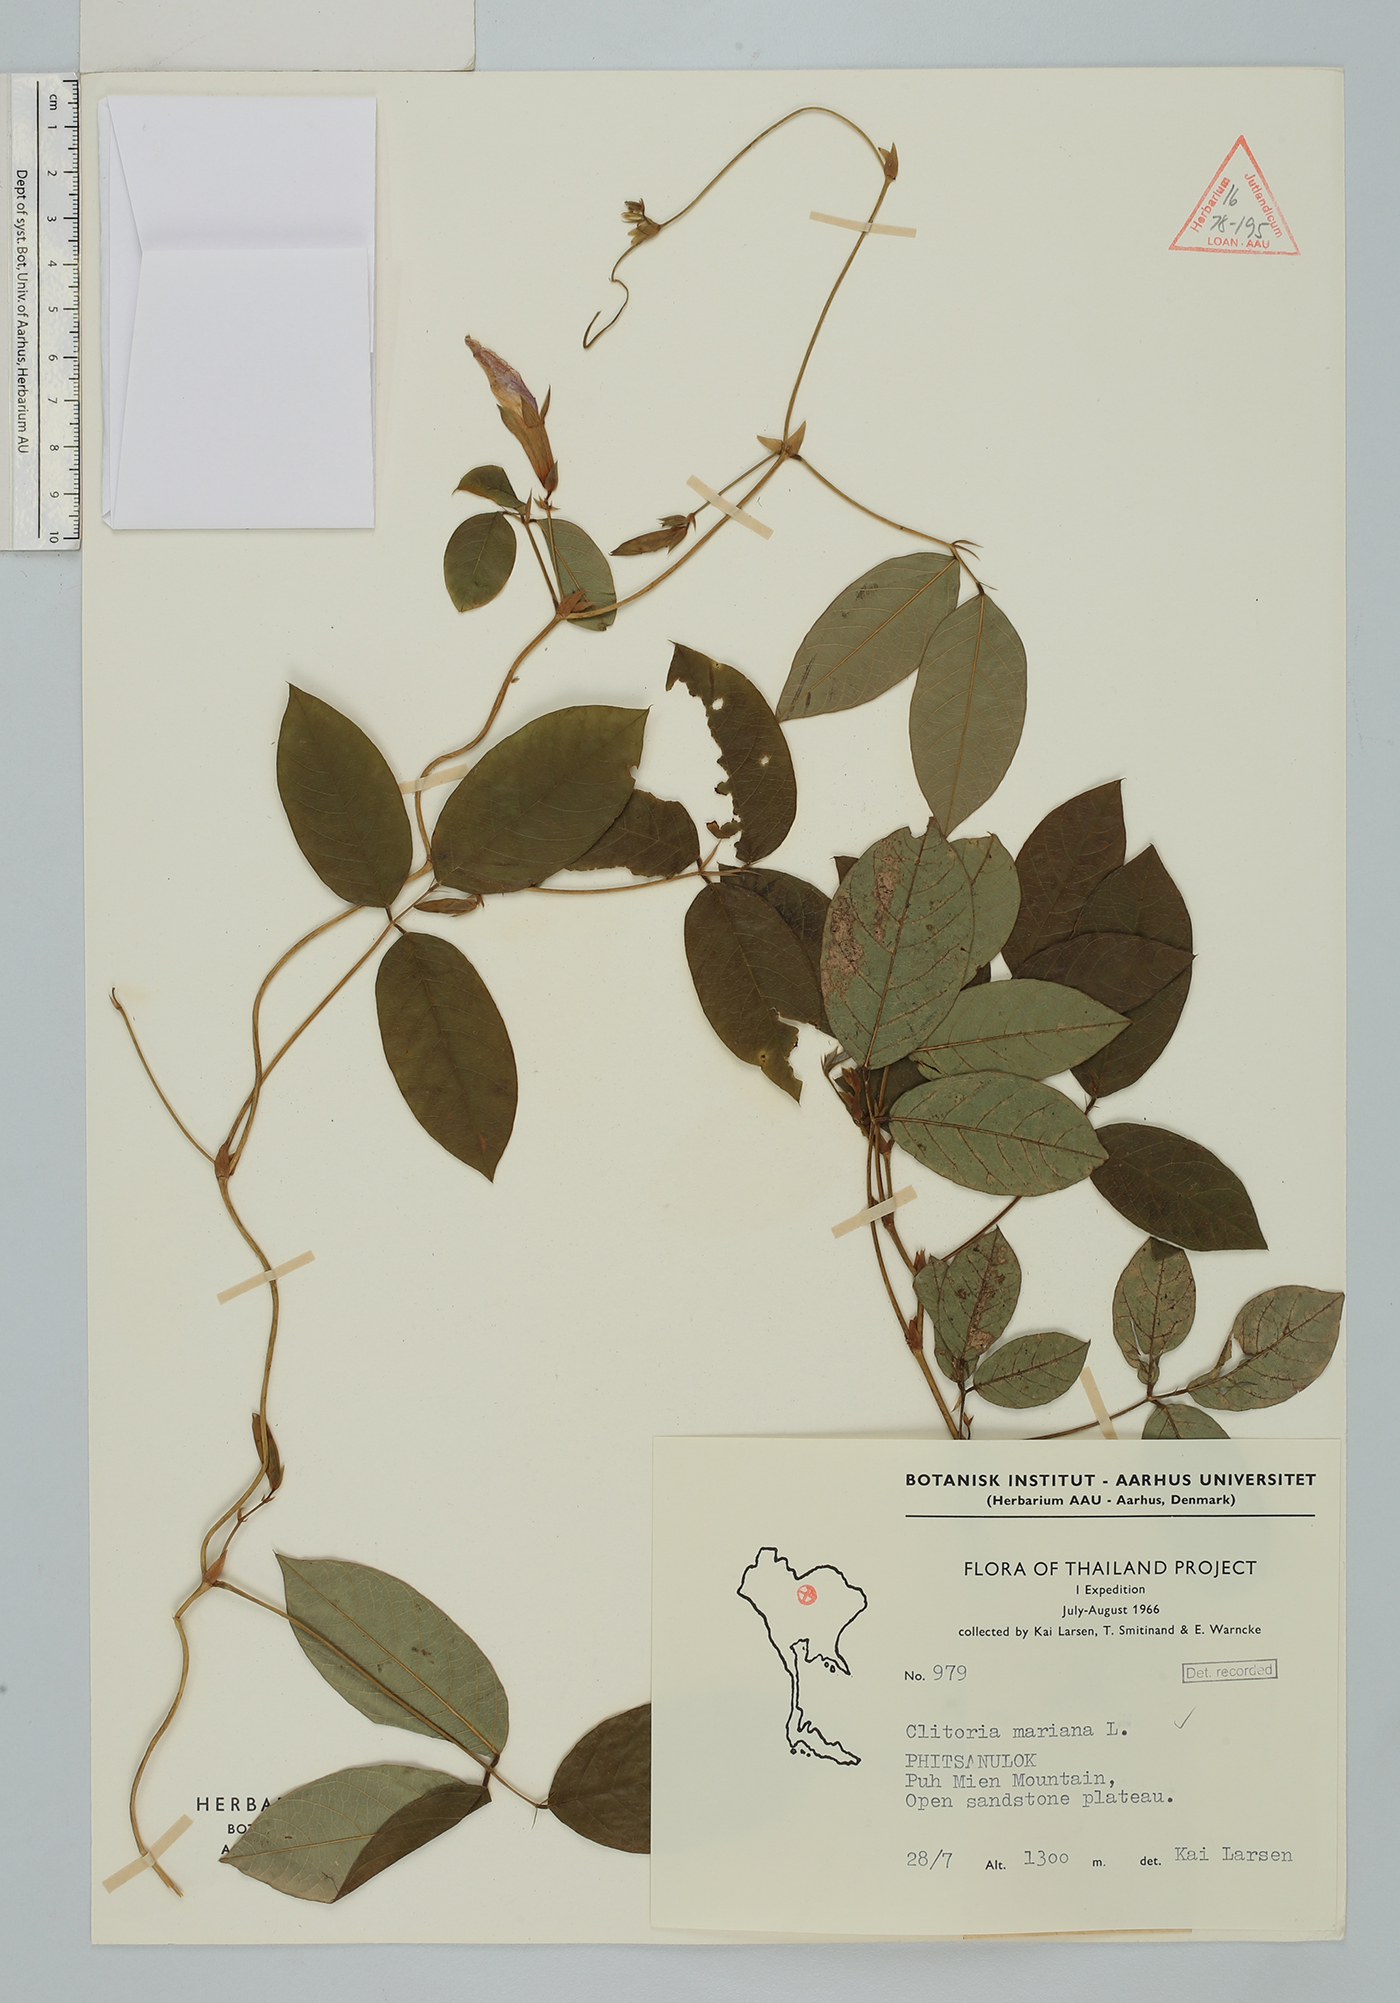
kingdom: Plantae
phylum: Tracheophyta
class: Magnoliopsida
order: Fabales
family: Fabaceae
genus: Clitoria
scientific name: Clitoria mariana
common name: Butterfly-pea
